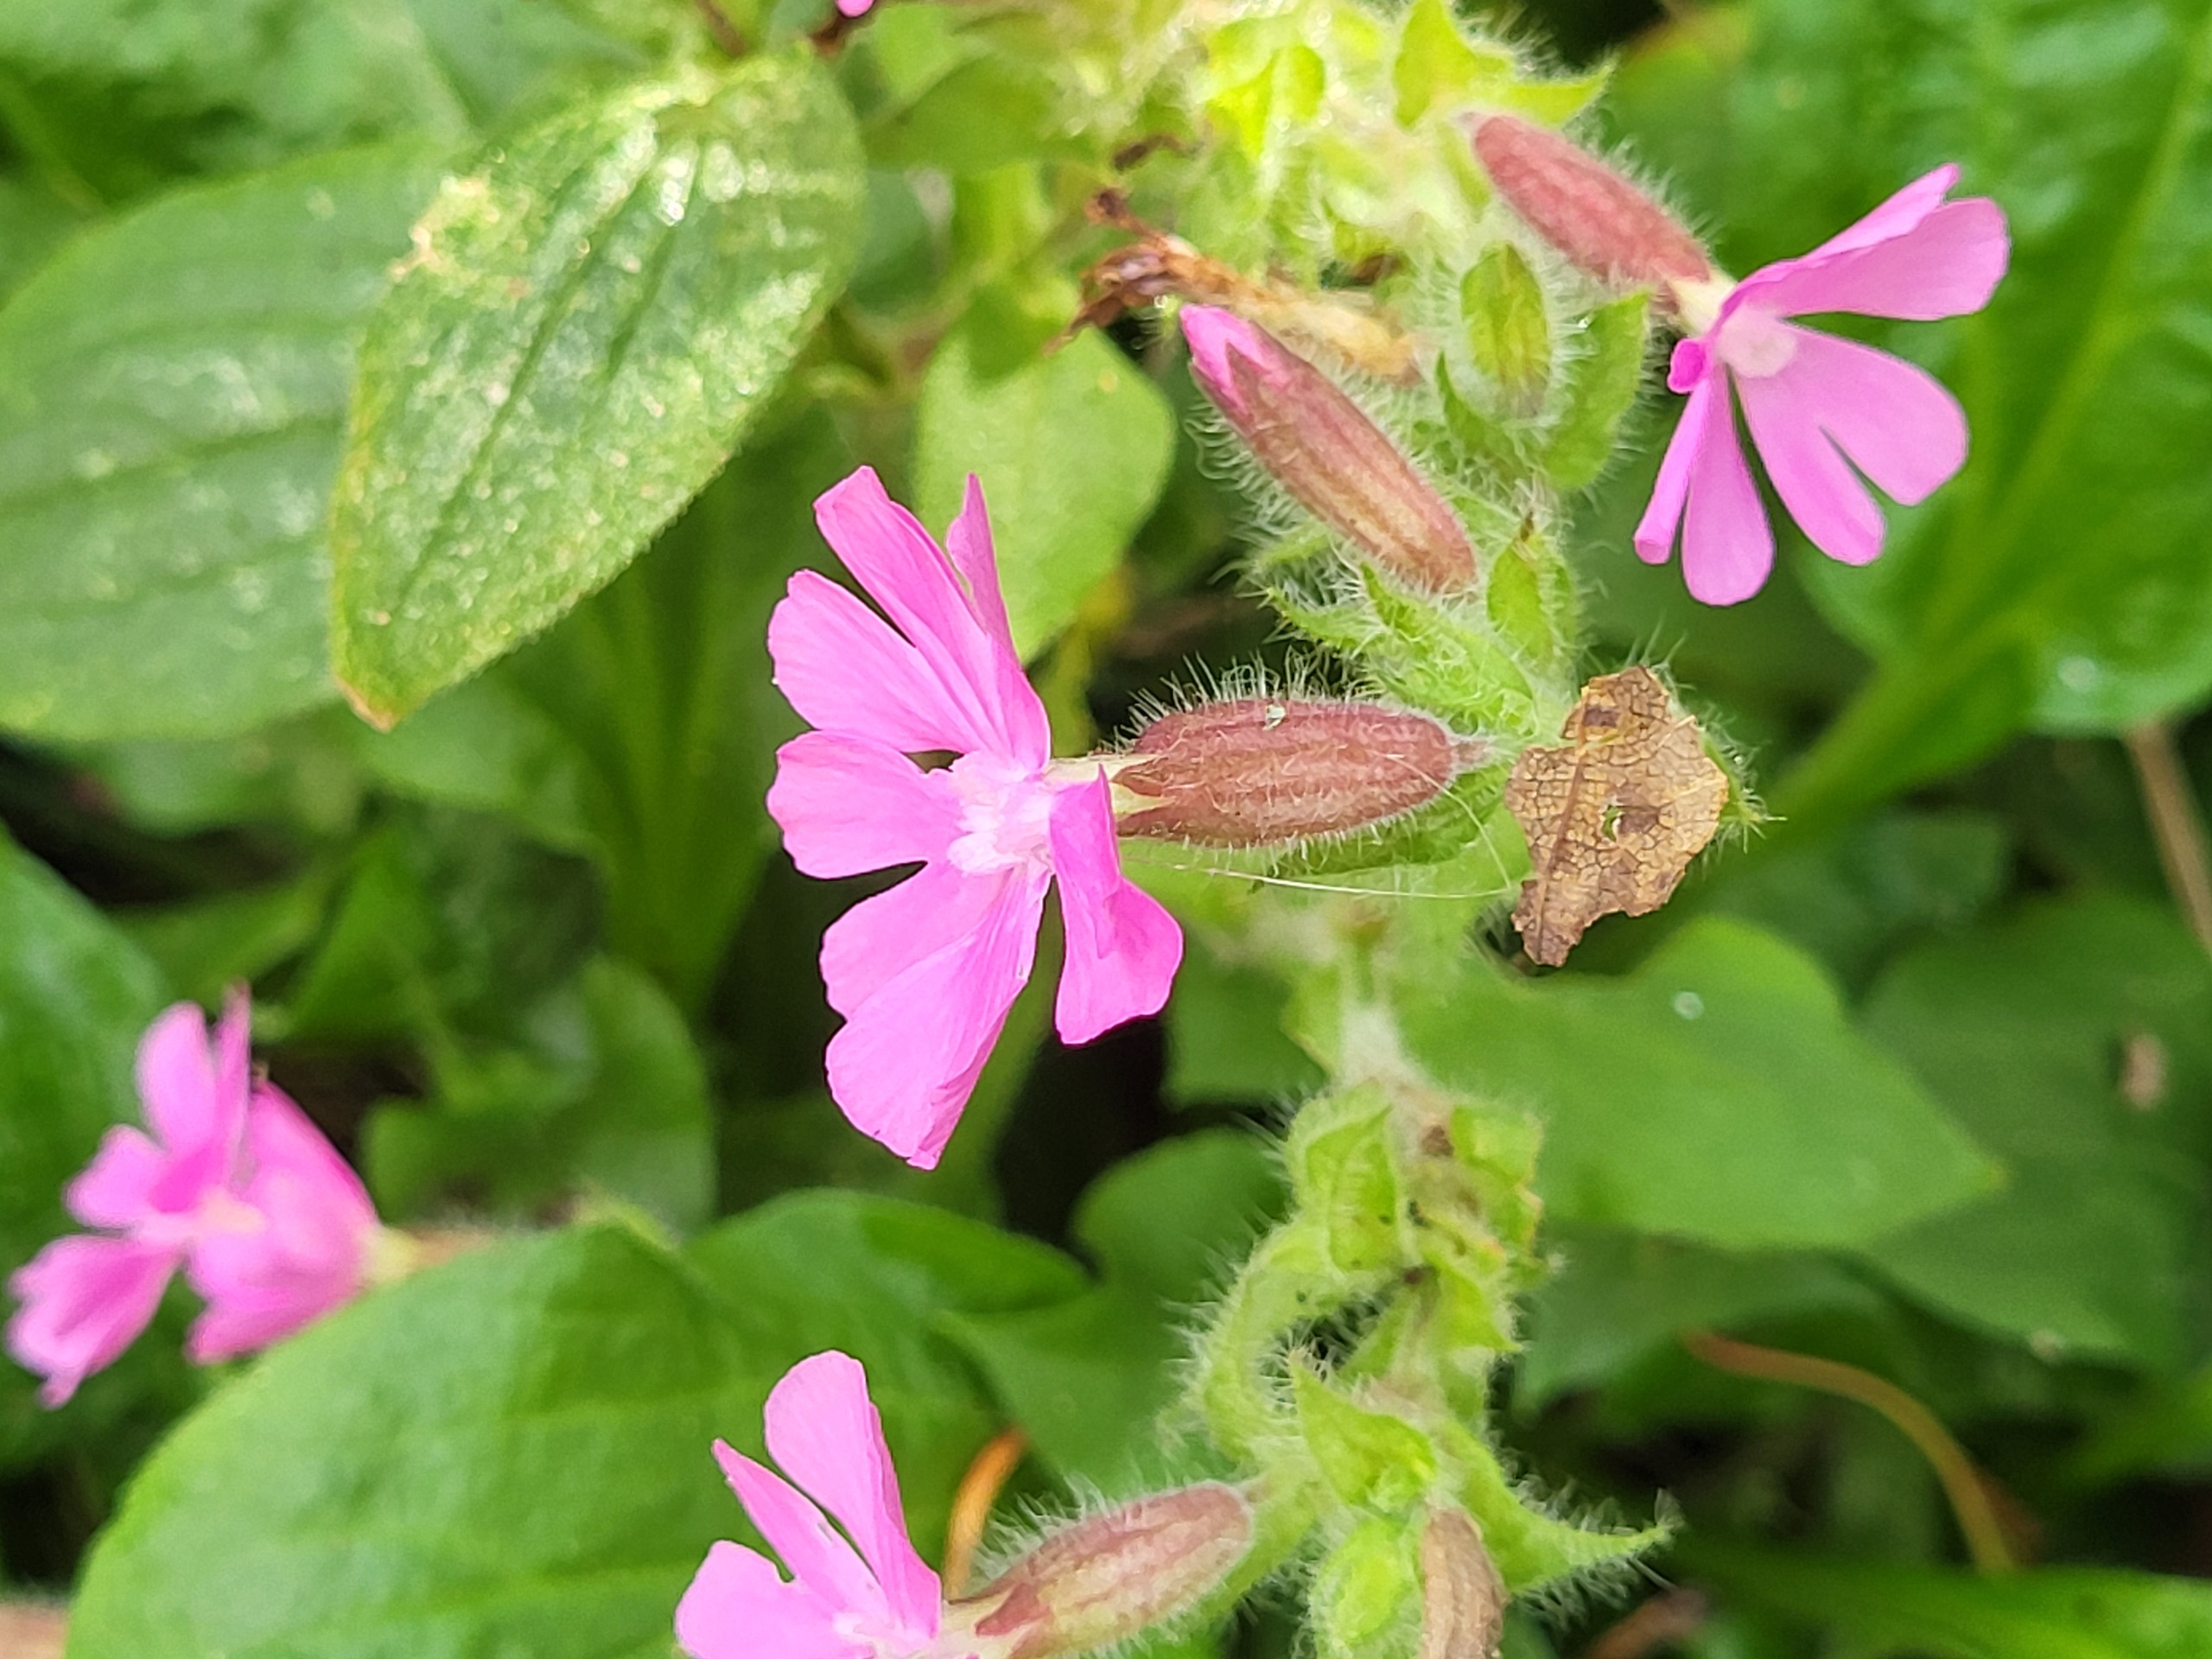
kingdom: Plantae
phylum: Tracheophyta
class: Magnoliopsida
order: Caryophyllales
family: Caryophyllaceae
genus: Silene
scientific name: Silene dioica
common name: Dagpragtstjerne
